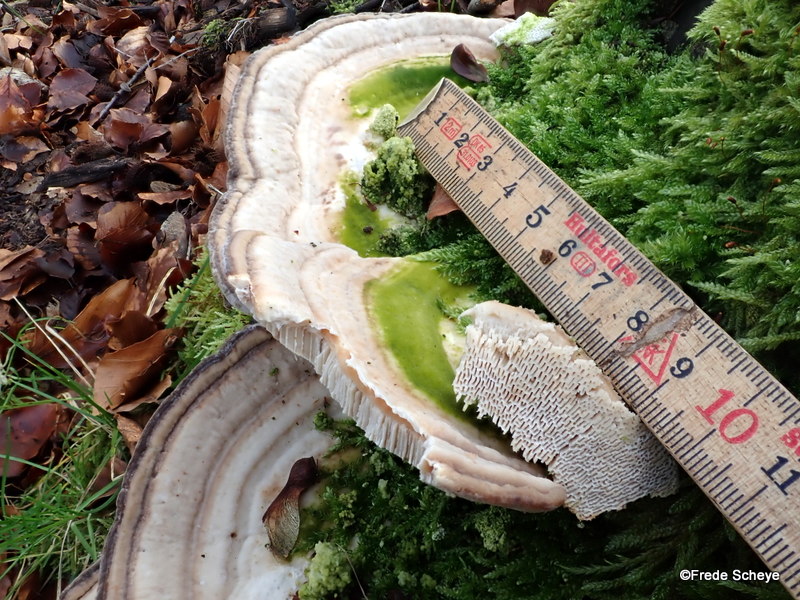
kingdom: Fungi
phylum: Basidiomycota
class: Agaricomycetes
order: Polyporales
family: Polyporaceae
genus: Trametes
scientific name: Trametes gibbosa
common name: puklet læderporesvamp
